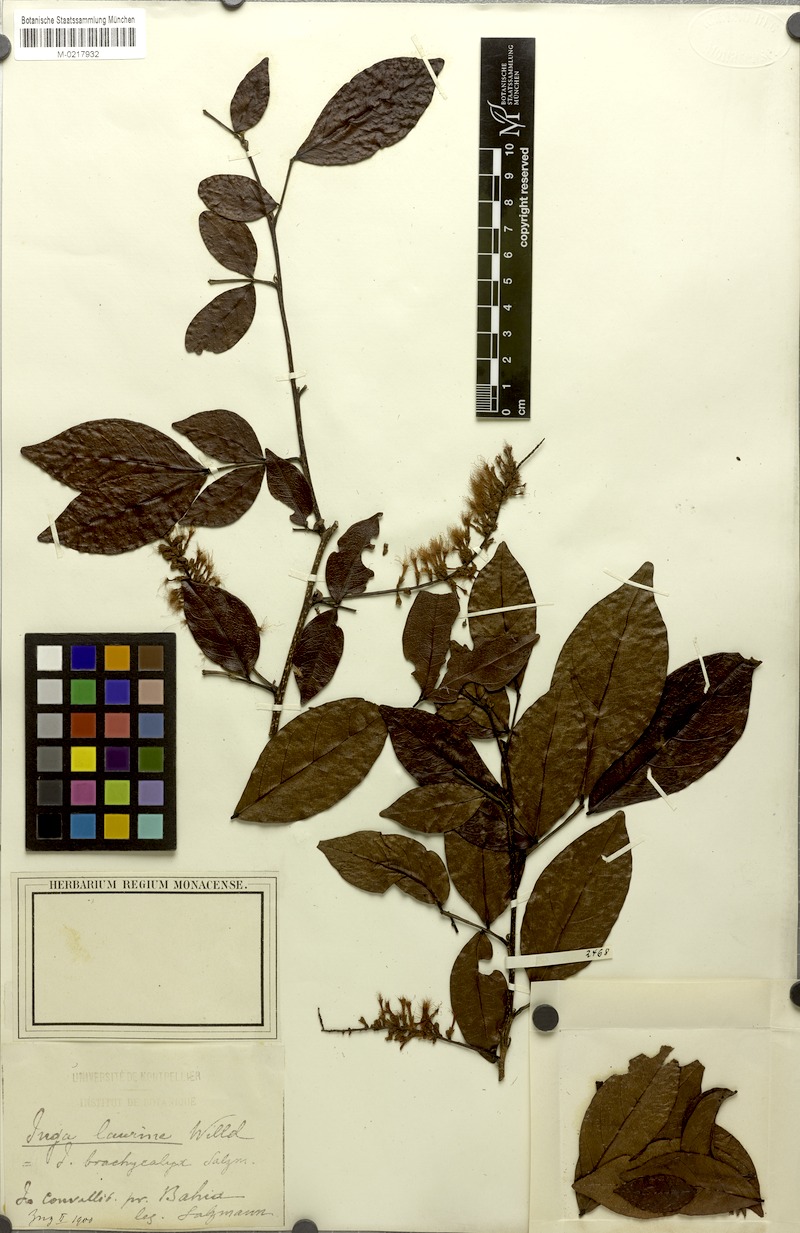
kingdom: Plantae
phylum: Tracheophyta
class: Magnoliopsida
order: Fabales
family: Fabaceae
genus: Inga
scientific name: Inga laurina
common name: Red wood
